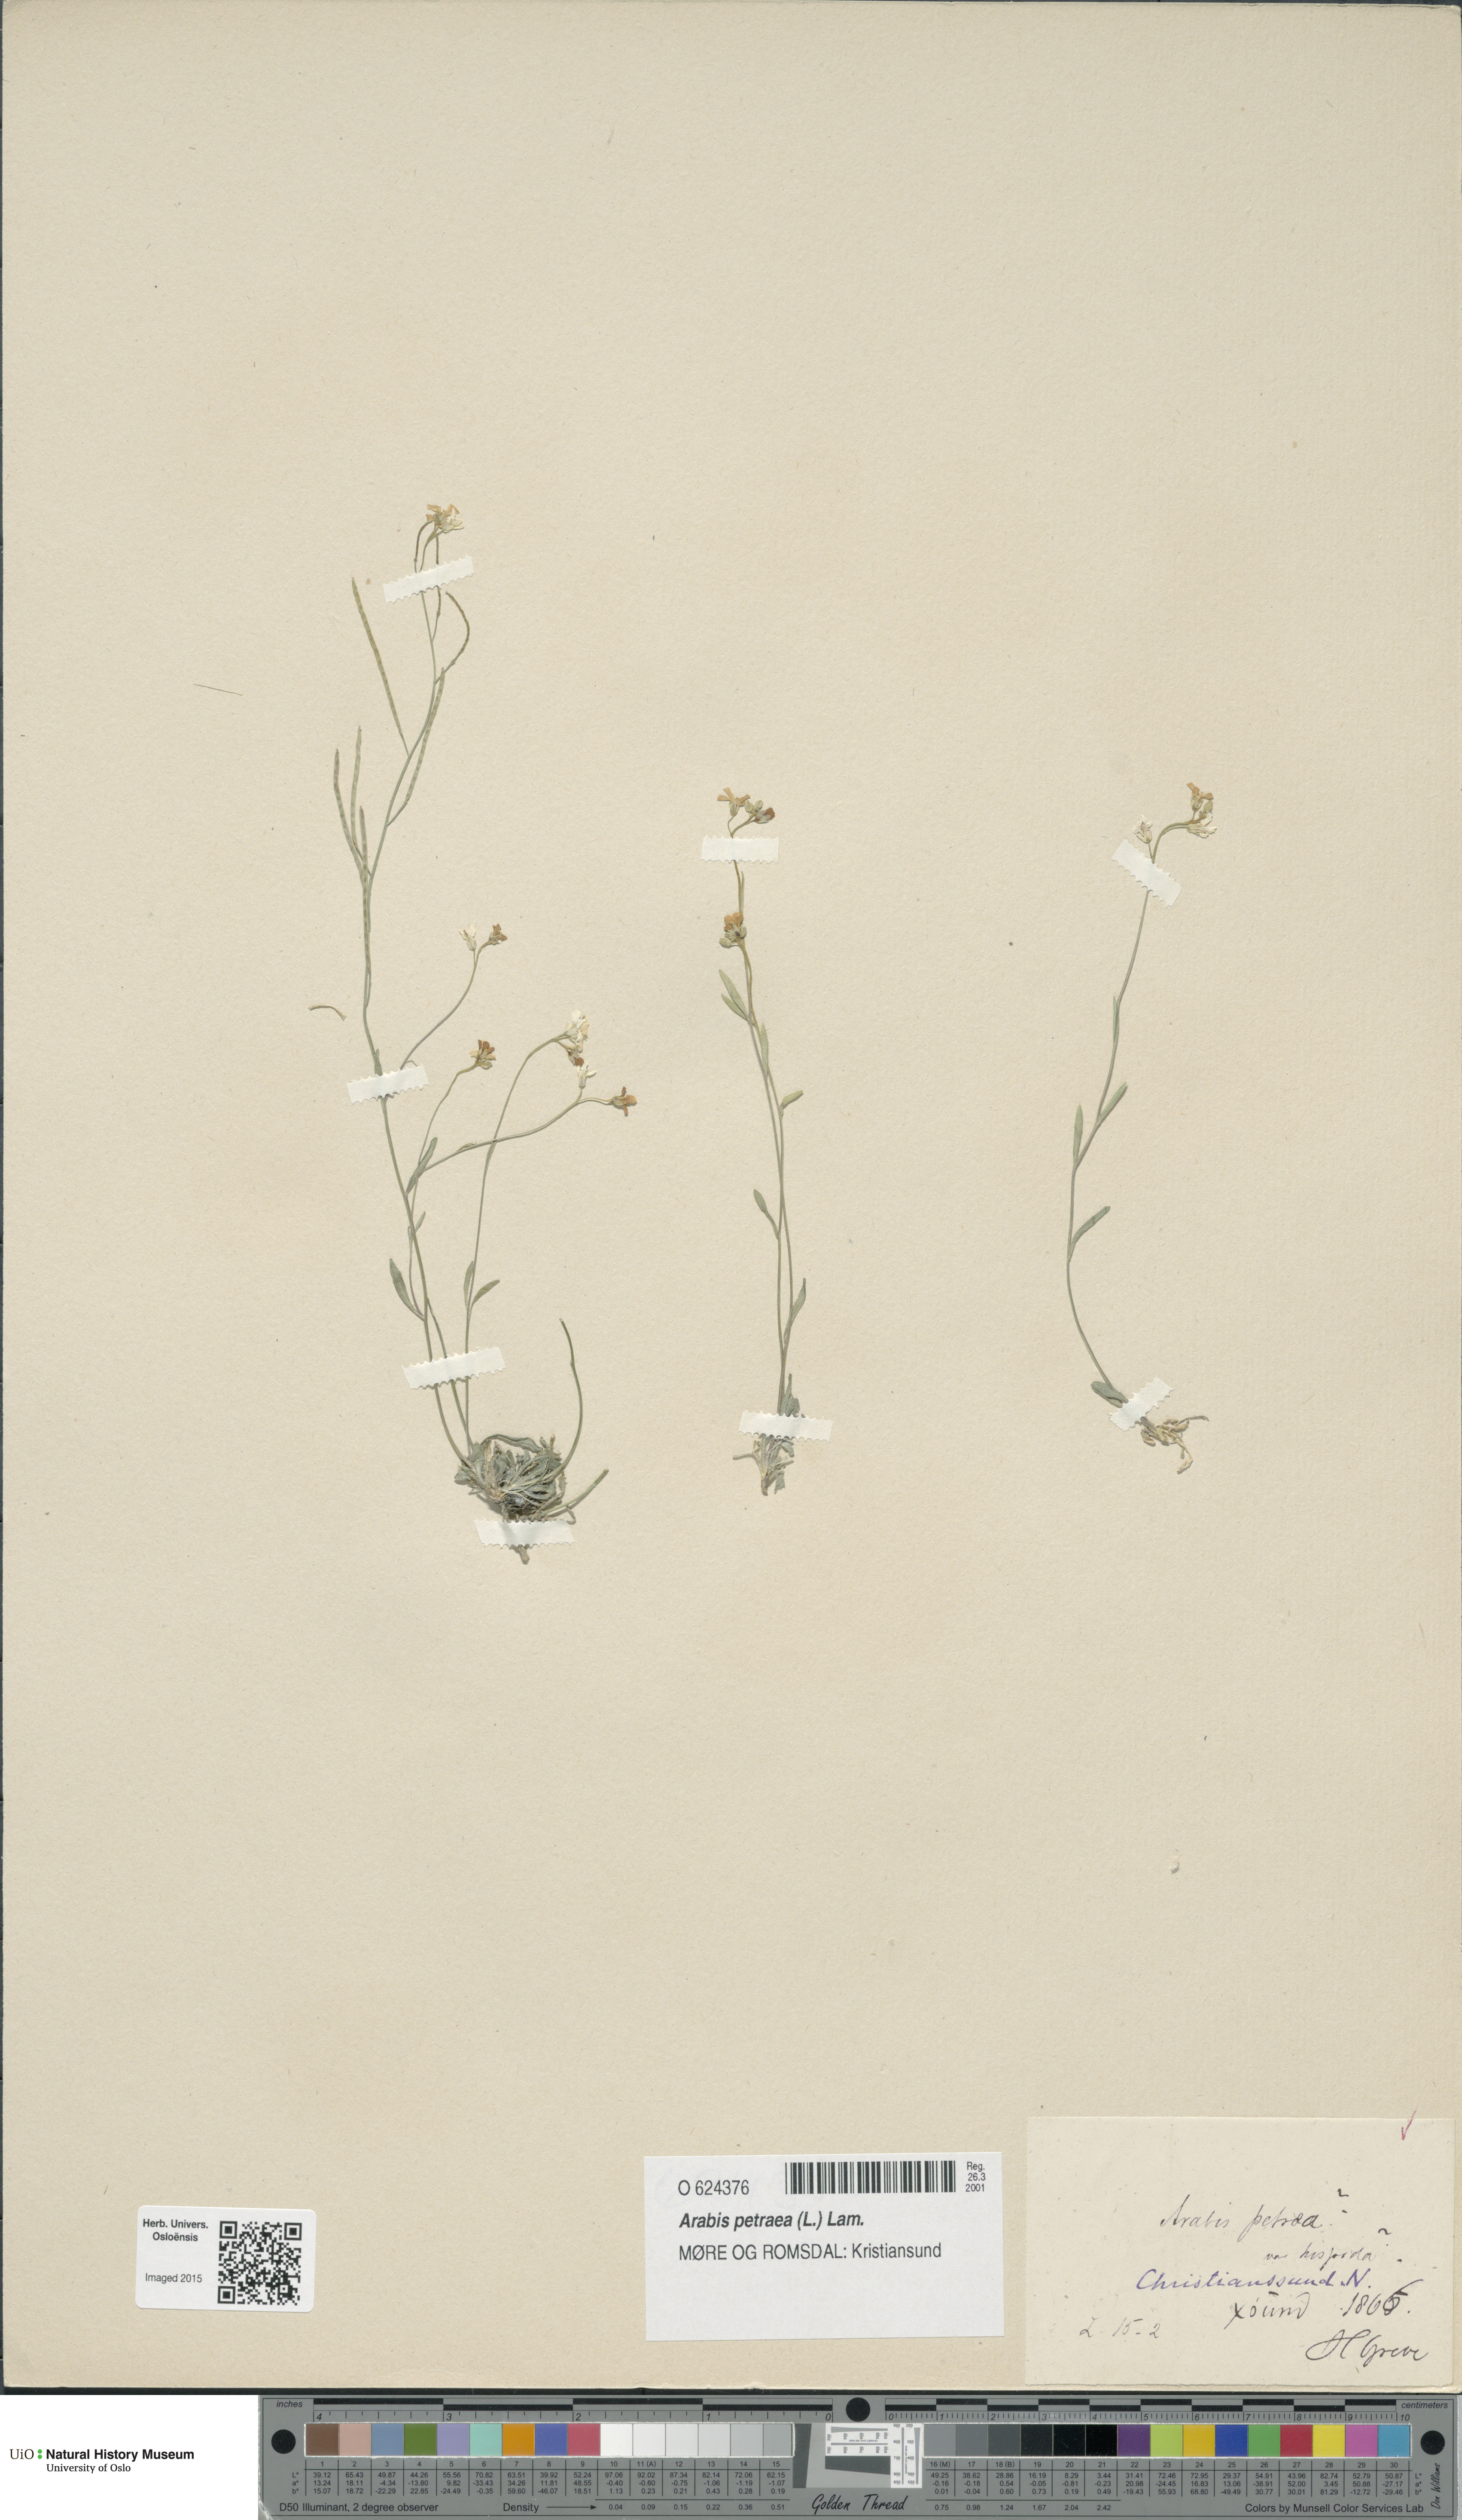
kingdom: Plantae
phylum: Tracheophyta
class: Magnoliopsida
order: Brassicales
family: Brassicaceae
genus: Arabidopsis
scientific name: Arabidopsis petraea
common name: Northern rock-cress
